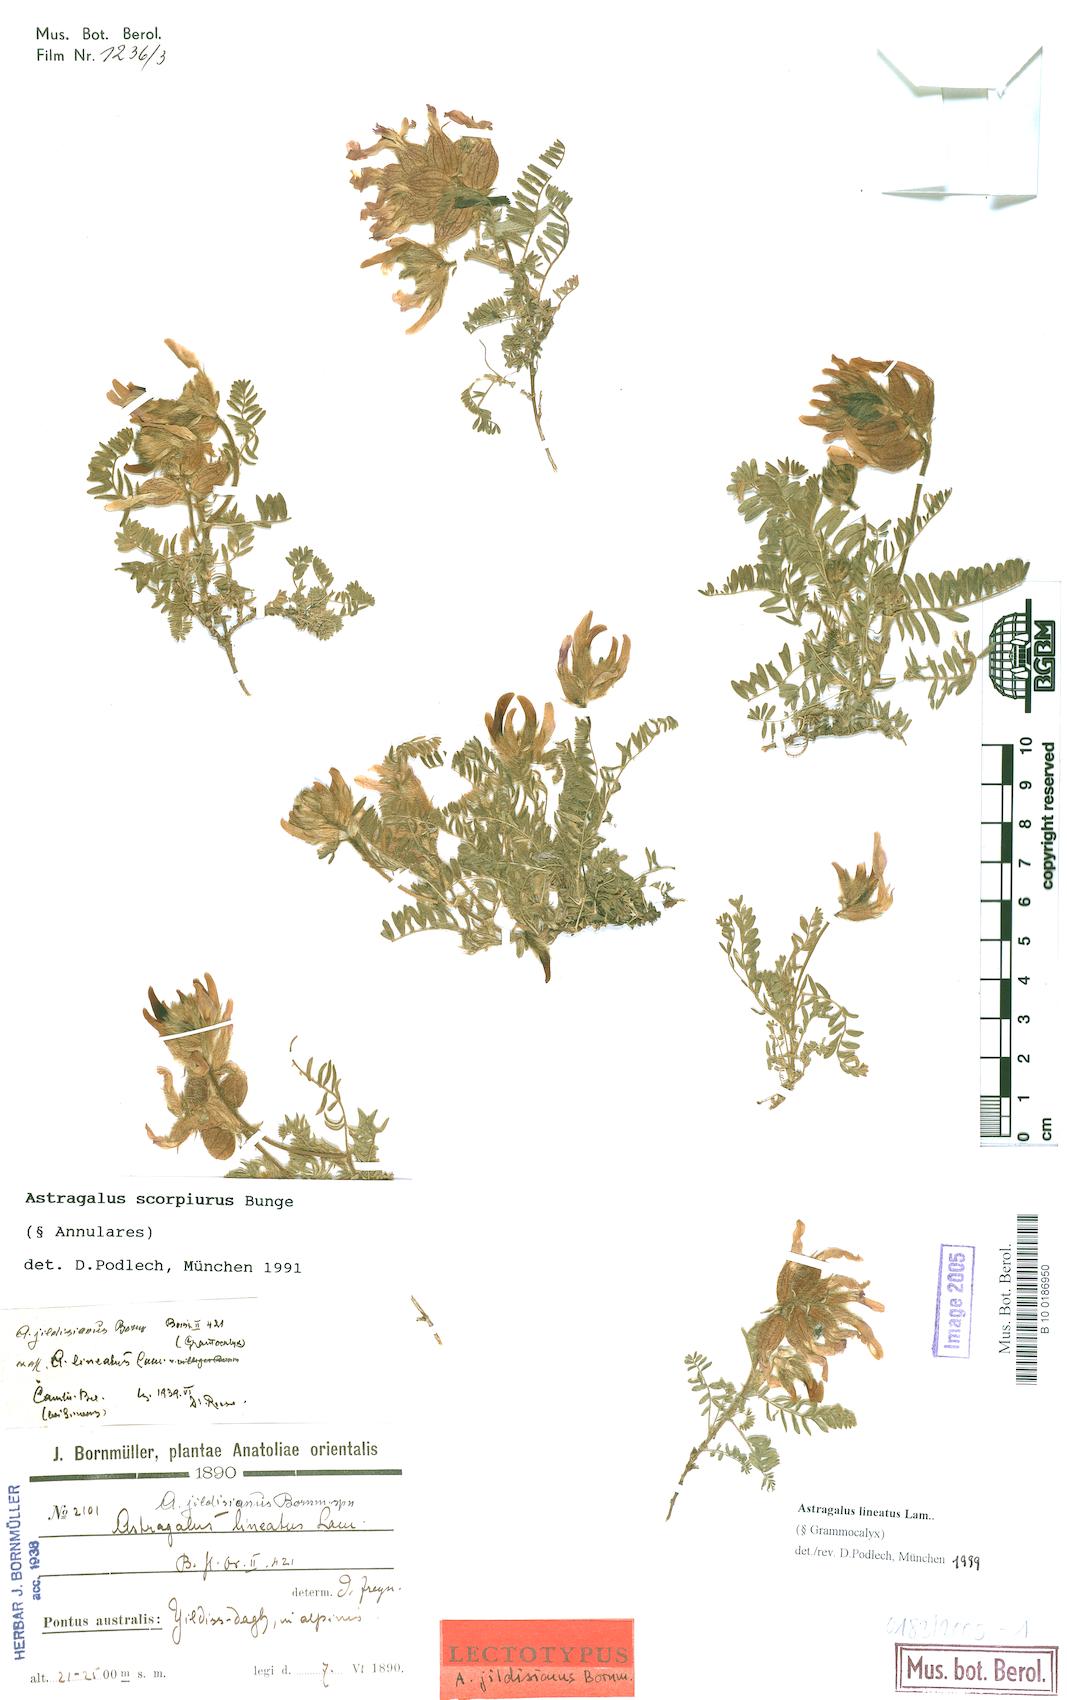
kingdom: Plantae
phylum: Tracheophyta
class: Magnoliopsida
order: Fabales
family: Fabaceae
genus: Astragalus
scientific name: Astragalus lineatus
